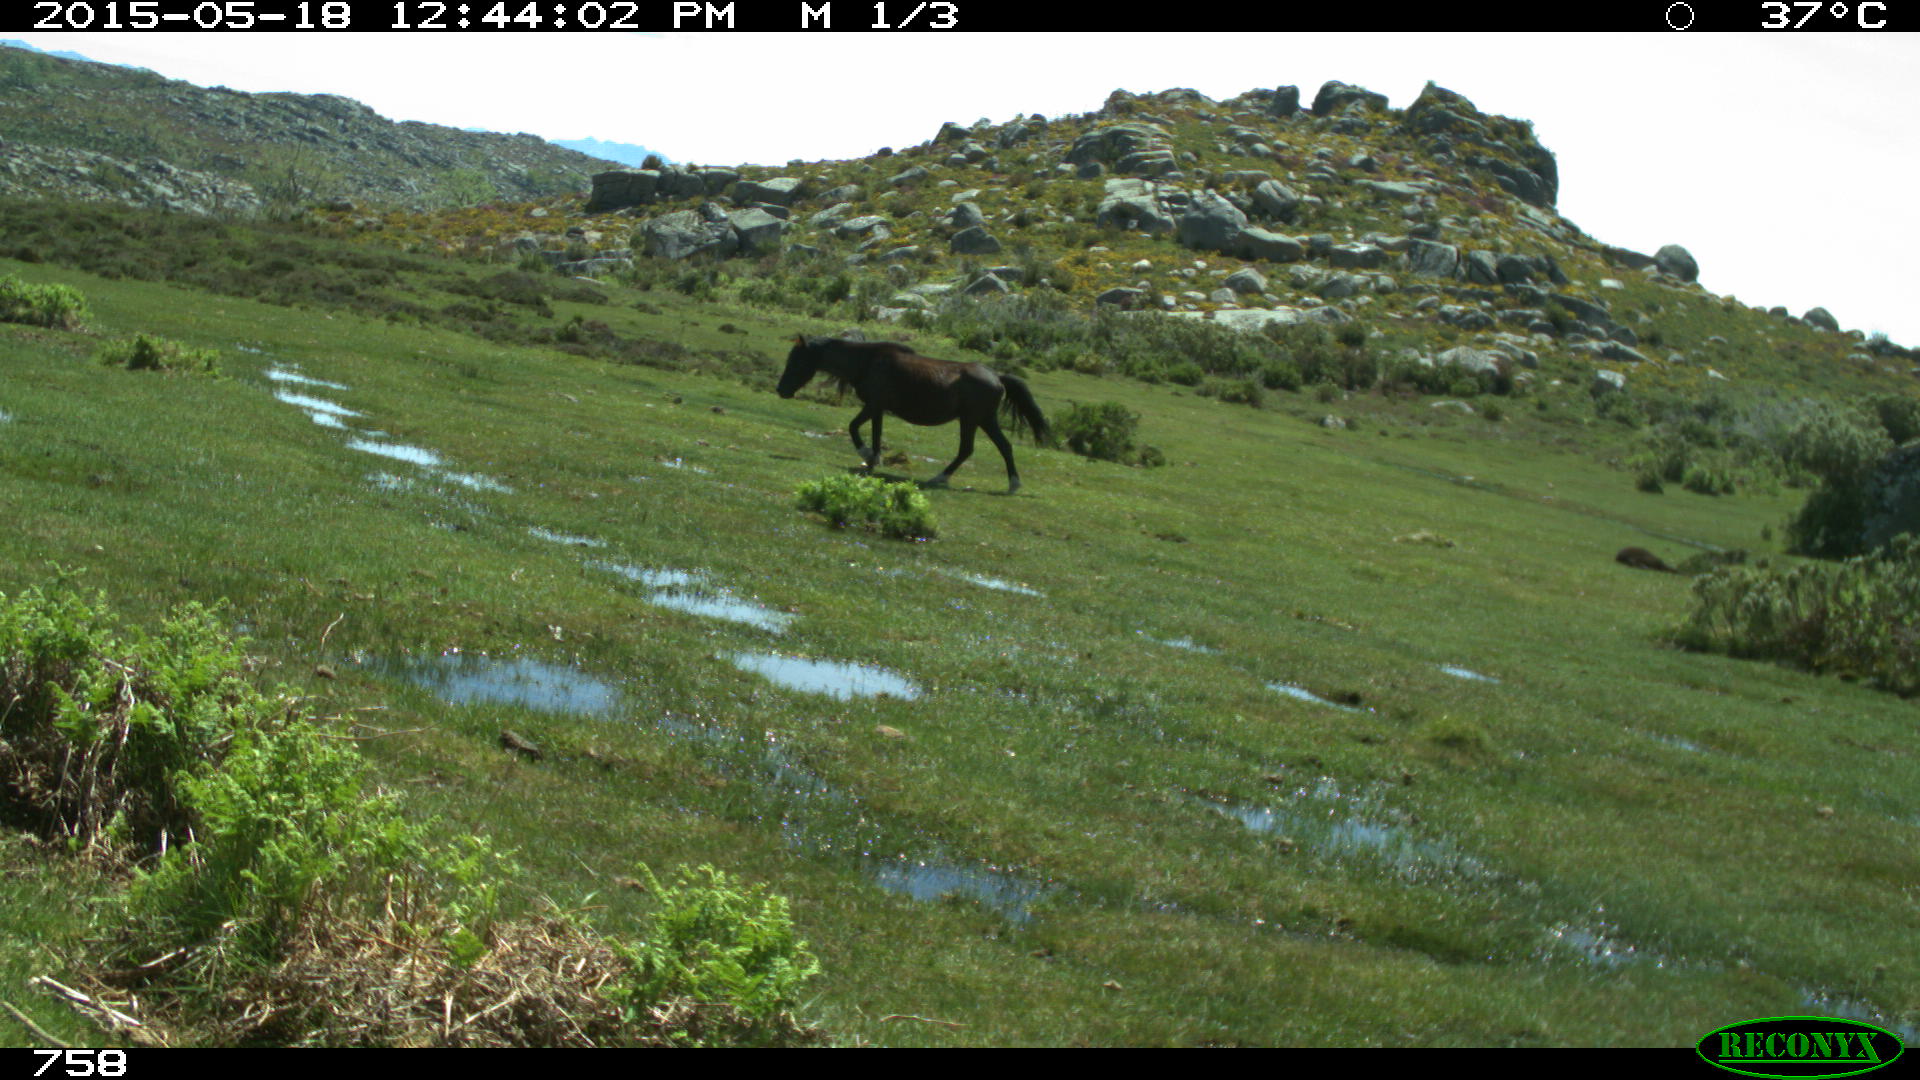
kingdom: Animalia
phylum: Chordata
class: Mammalia
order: Perissodactyla
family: Equidae
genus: Equus
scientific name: Equus caballus
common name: Horse
